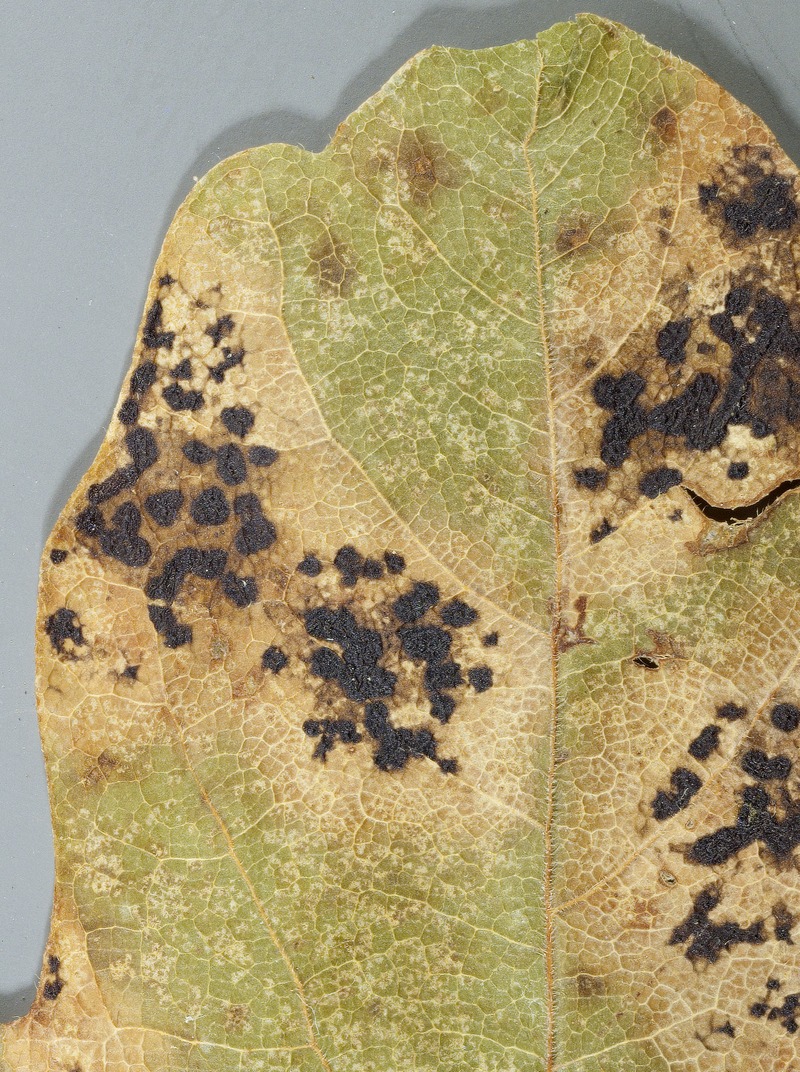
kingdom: Fungi
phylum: Ascomycota
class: Leotiomycetes
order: Rhytismatales
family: Rhytismataceae
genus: Rhytisma
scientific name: Rhytisma punctatum
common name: Speckled tar spot
